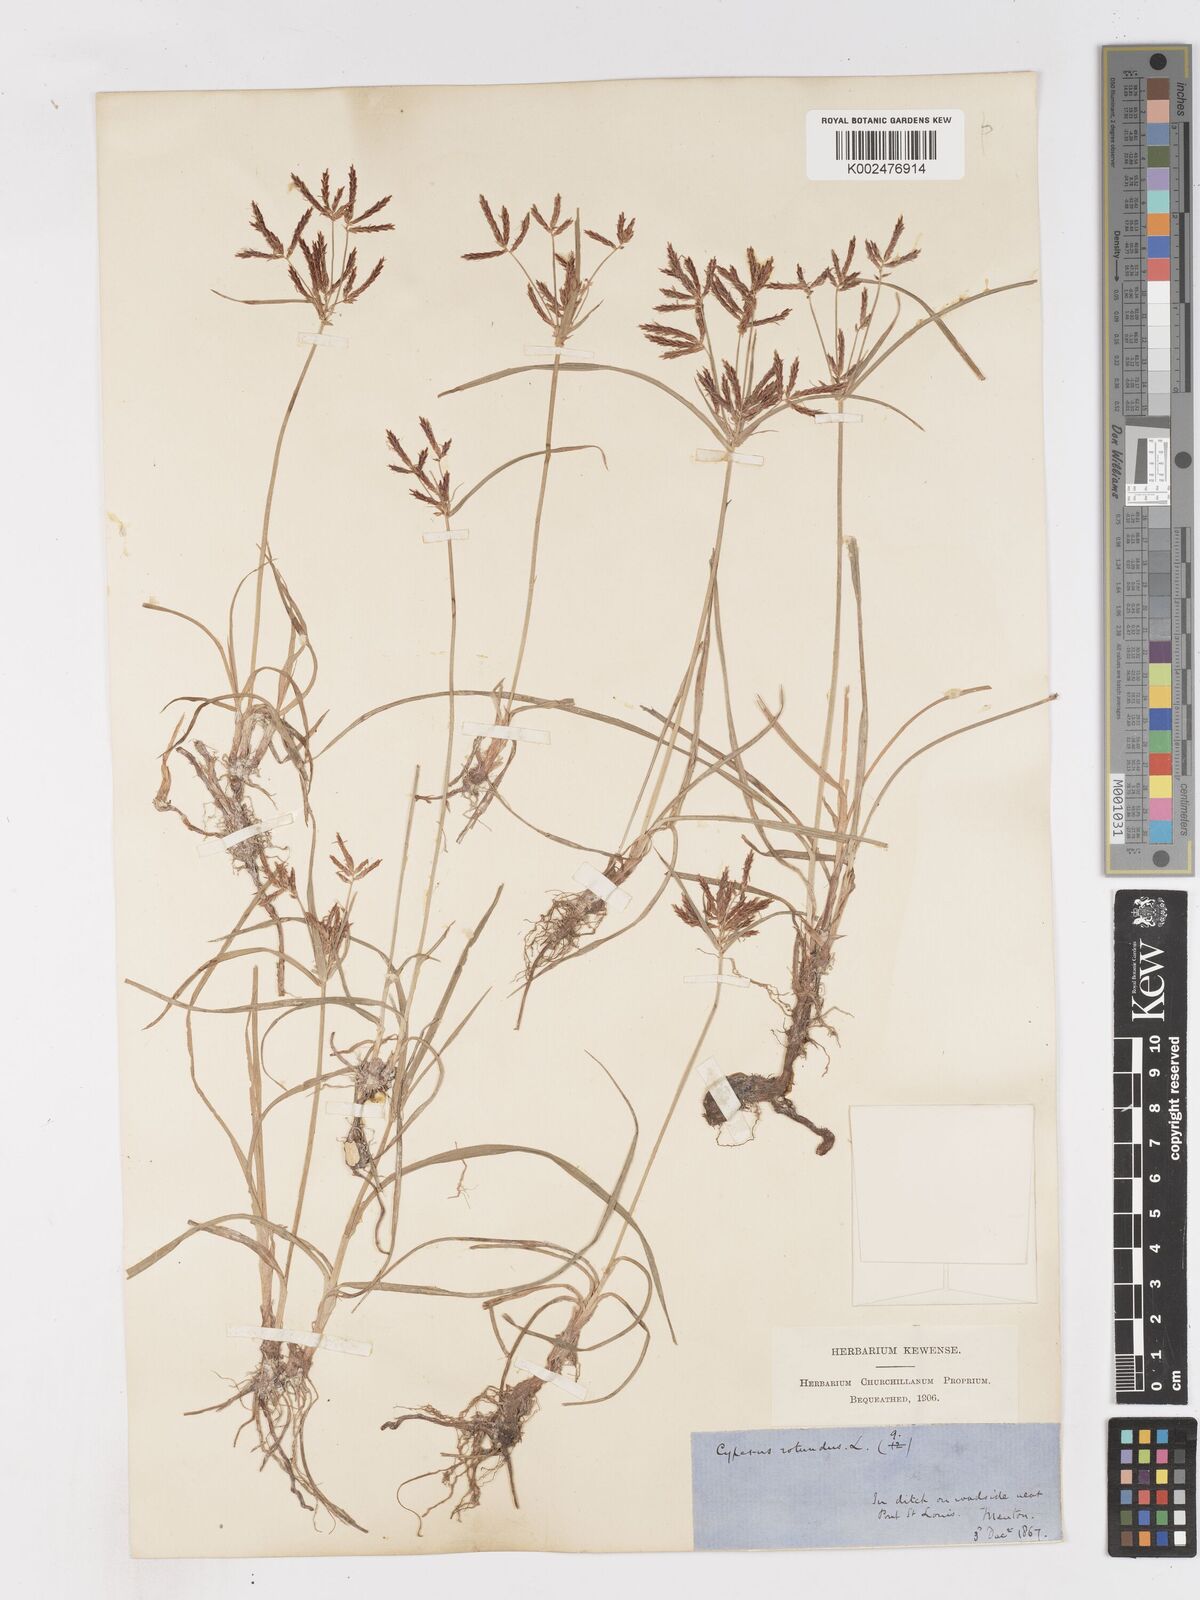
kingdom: Plantae
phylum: Tracheophyta
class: Liliopsida
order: Poales
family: Cyperaceae
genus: Cyperus
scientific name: Cyperus rotundus
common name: Nutgrass
